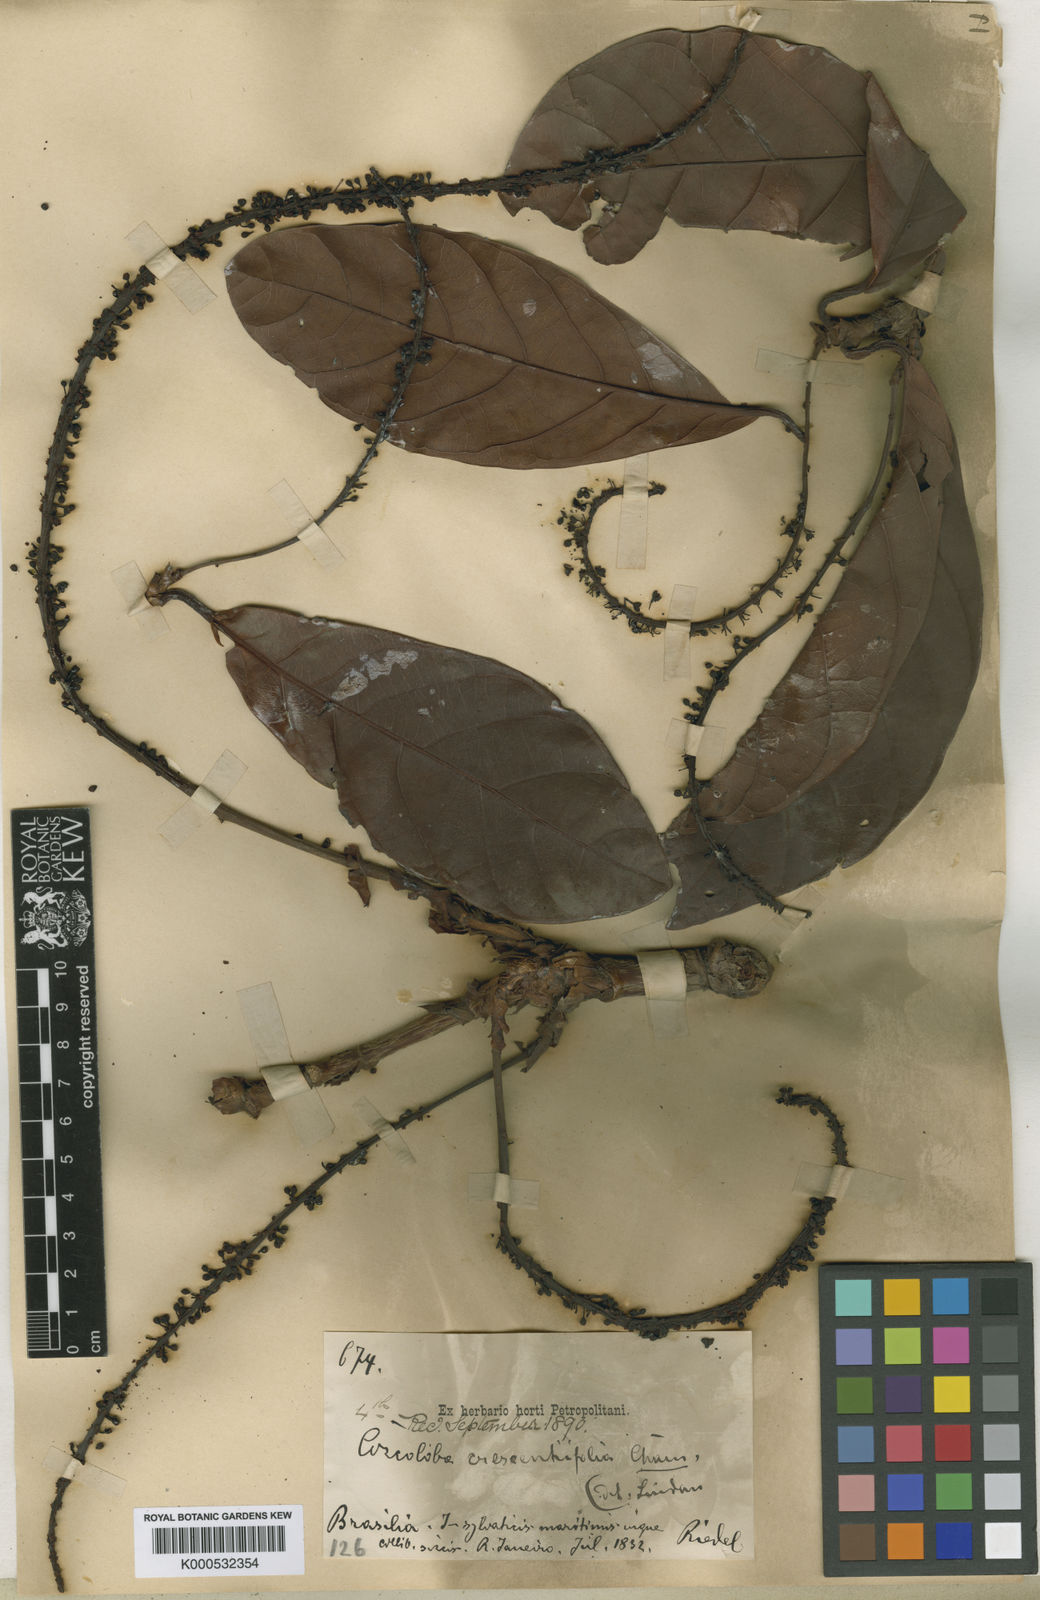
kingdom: Plantae
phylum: Tracheophyta
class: Magnoliopsida
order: Caryophyllales
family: Polygonaceae
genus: Coccoloba
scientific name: Coccoloba arborescens
